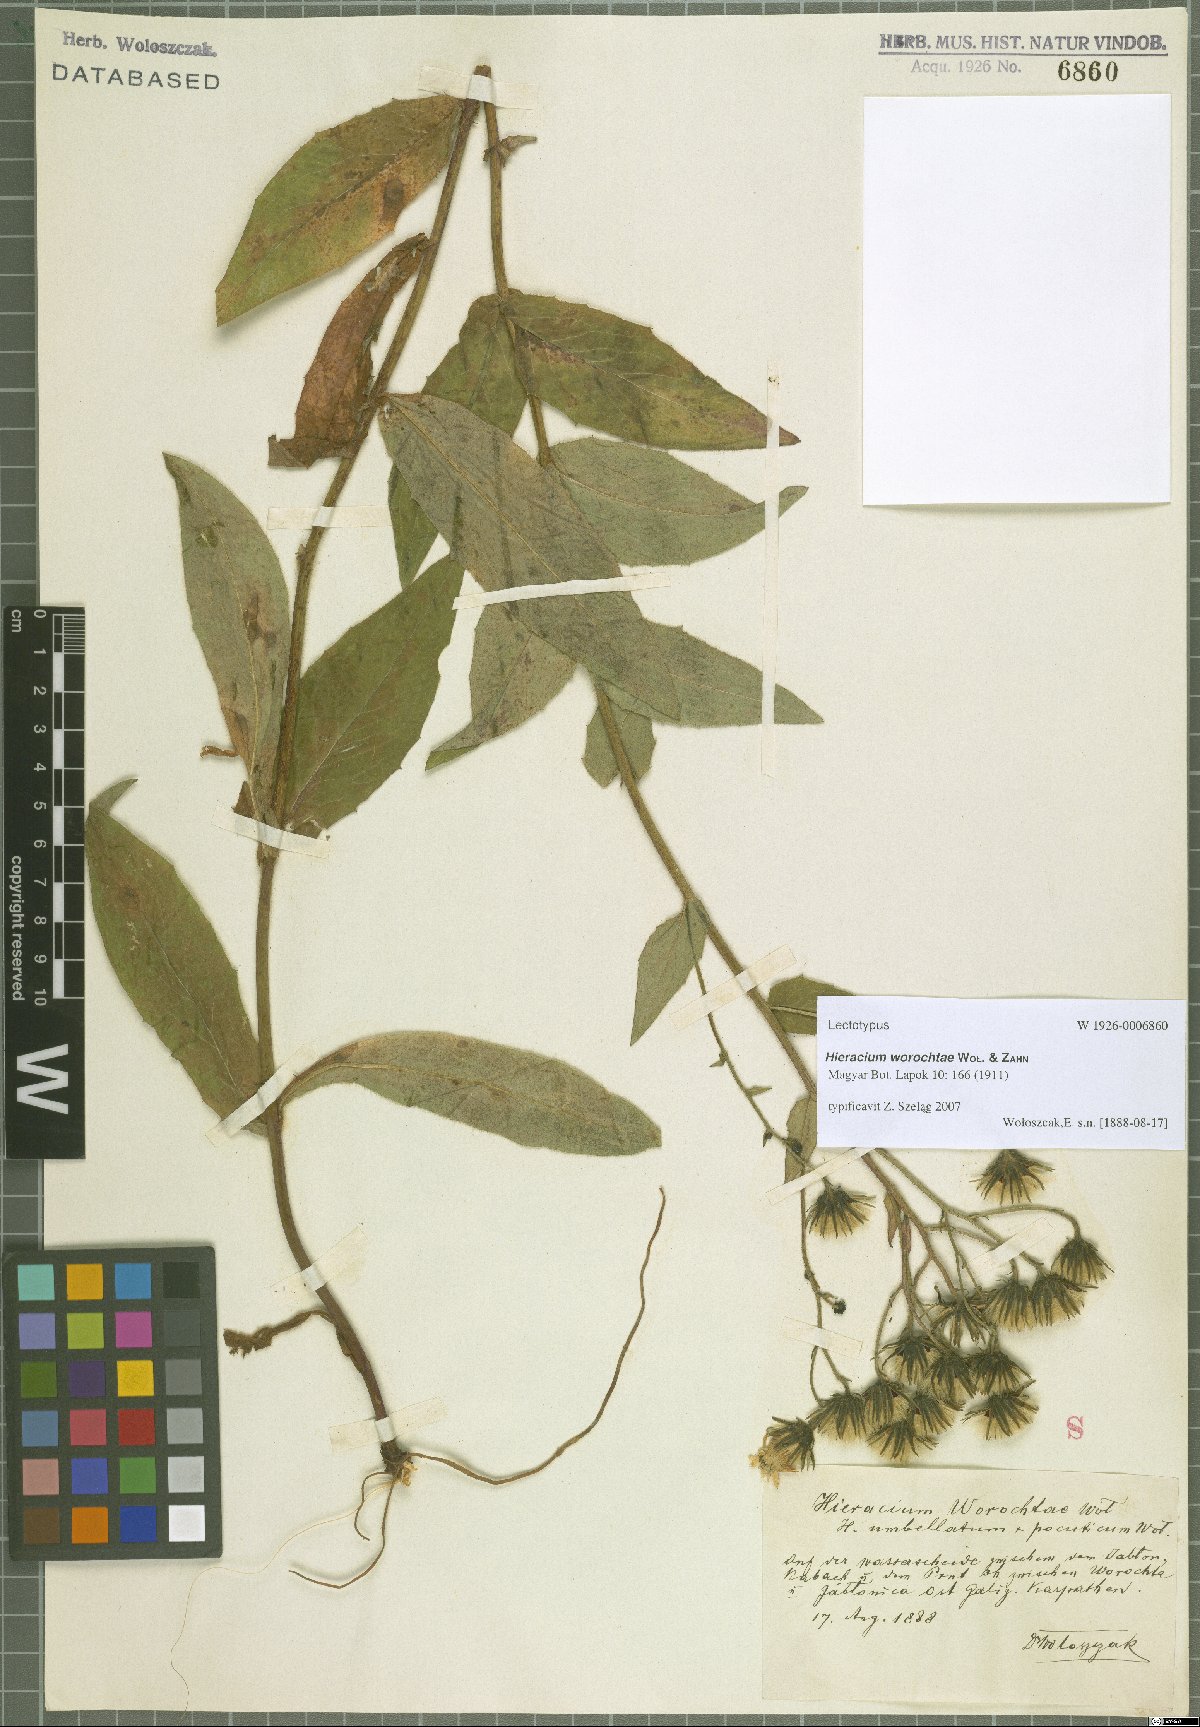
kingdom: Plantae
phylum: Tracheophyta
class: Magnoliopsida
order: Asterales
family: Asteraceae
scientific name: Asteraceae
